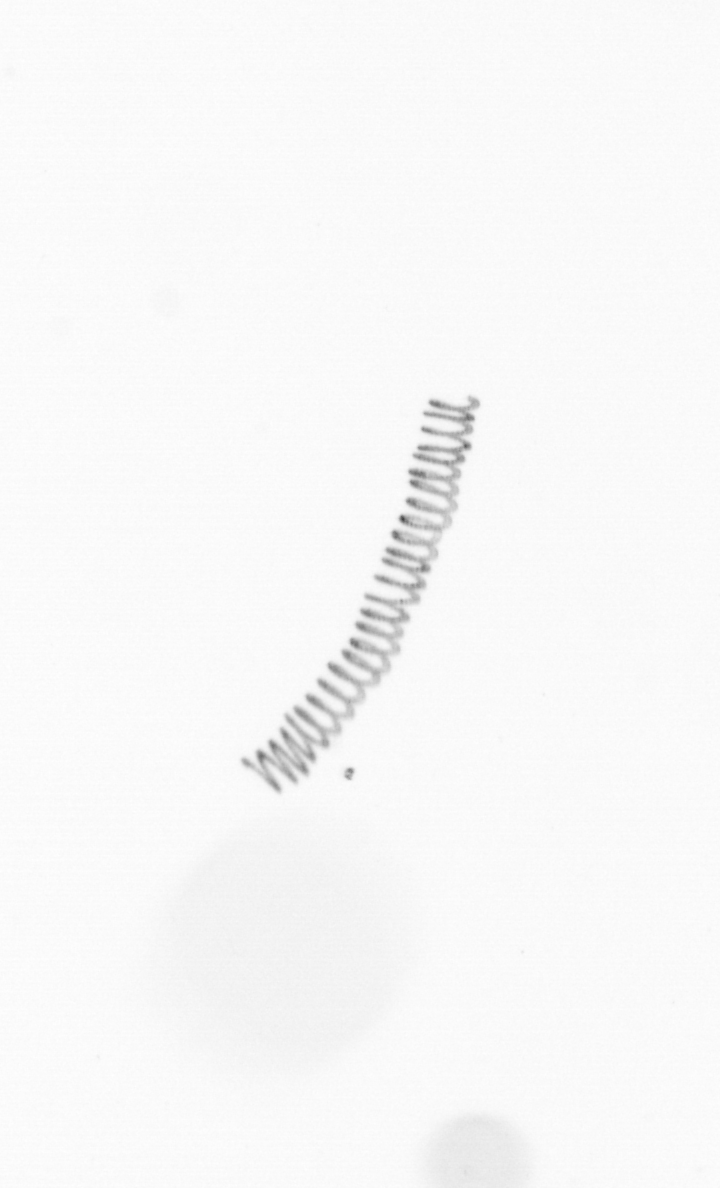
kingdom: Chromista
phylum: Ochrophyta
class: Bacillariophyceae
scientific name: Bacillariophyceae
